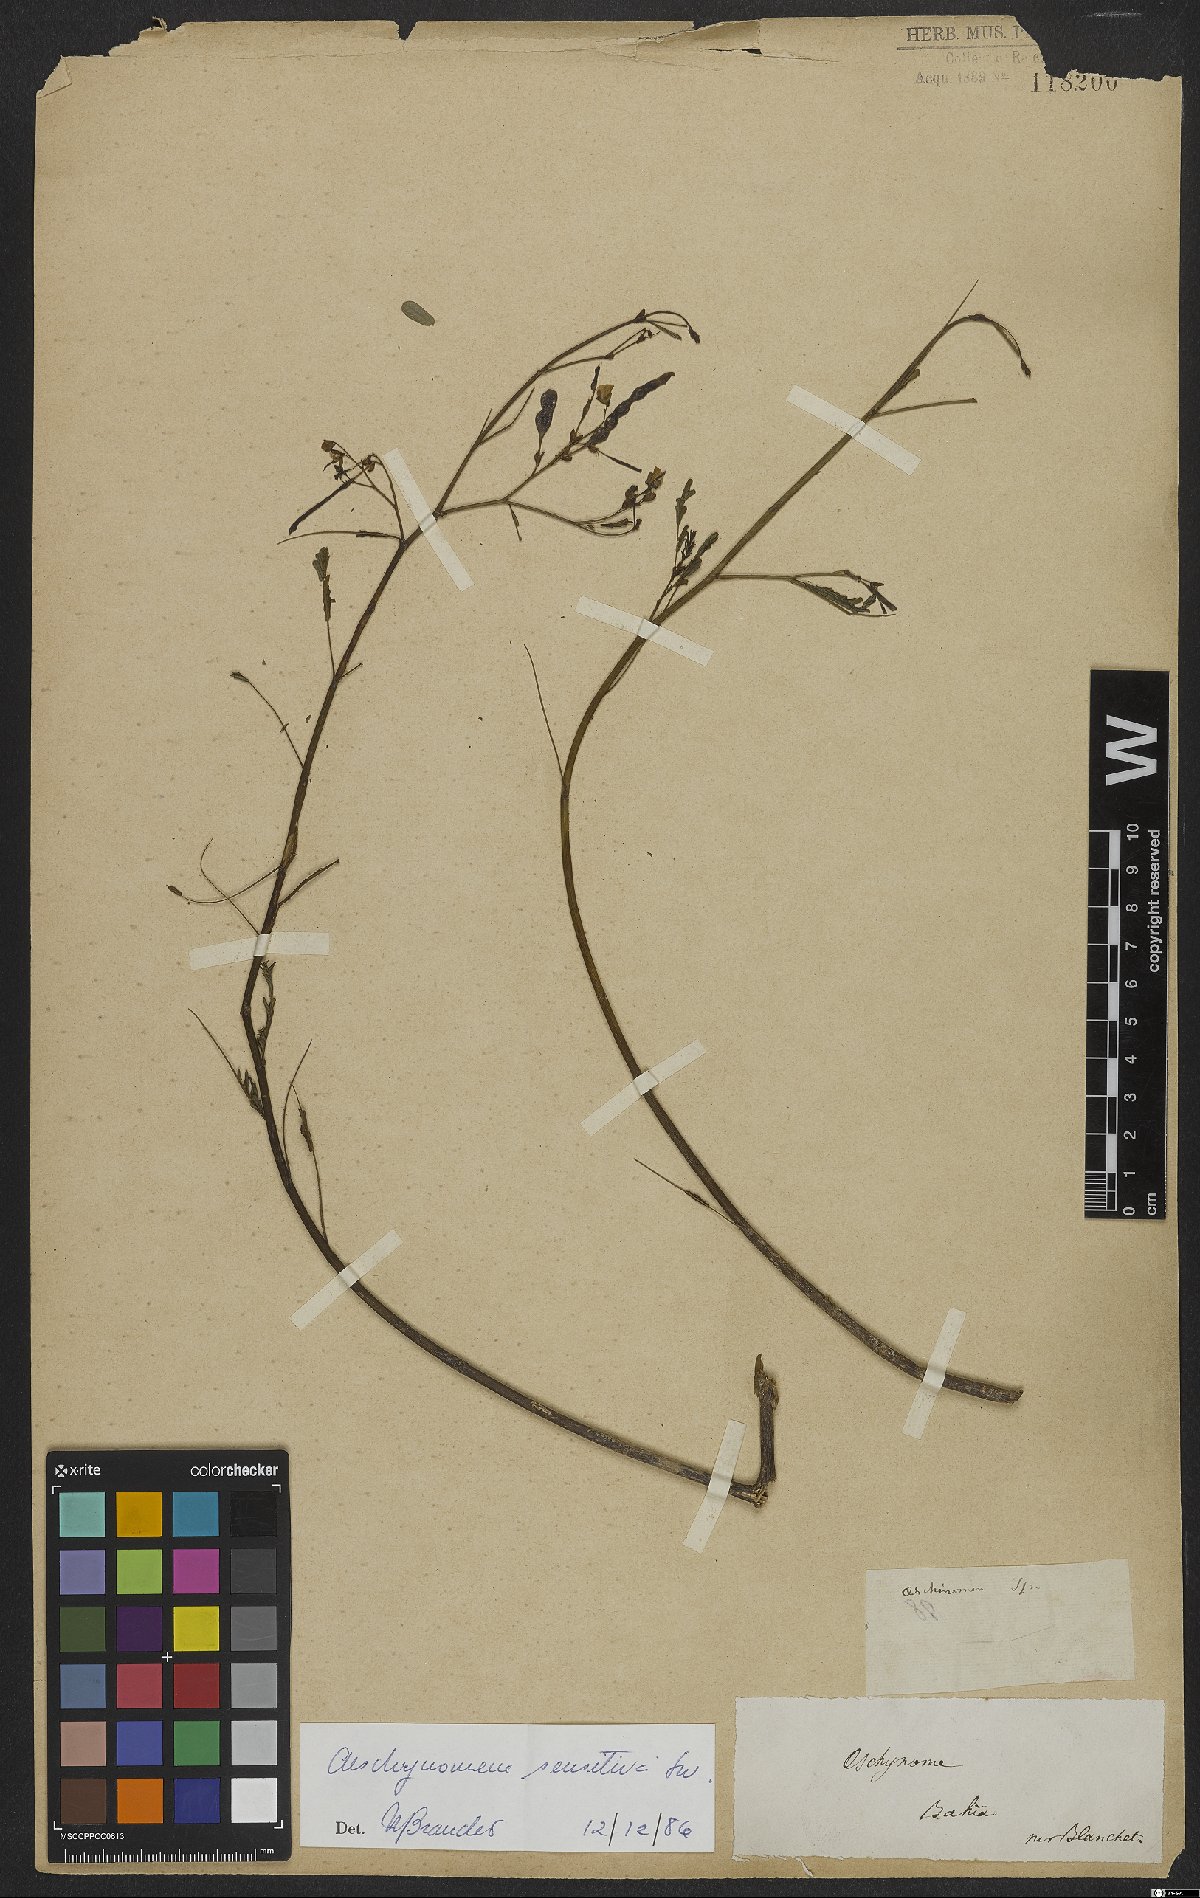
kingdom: Plantae
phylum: Tracheophyta
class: Magnoliopsida
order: Fabales
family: Fabaceae
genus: Aeschynomene
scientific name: Aeschynomene sensitiva
